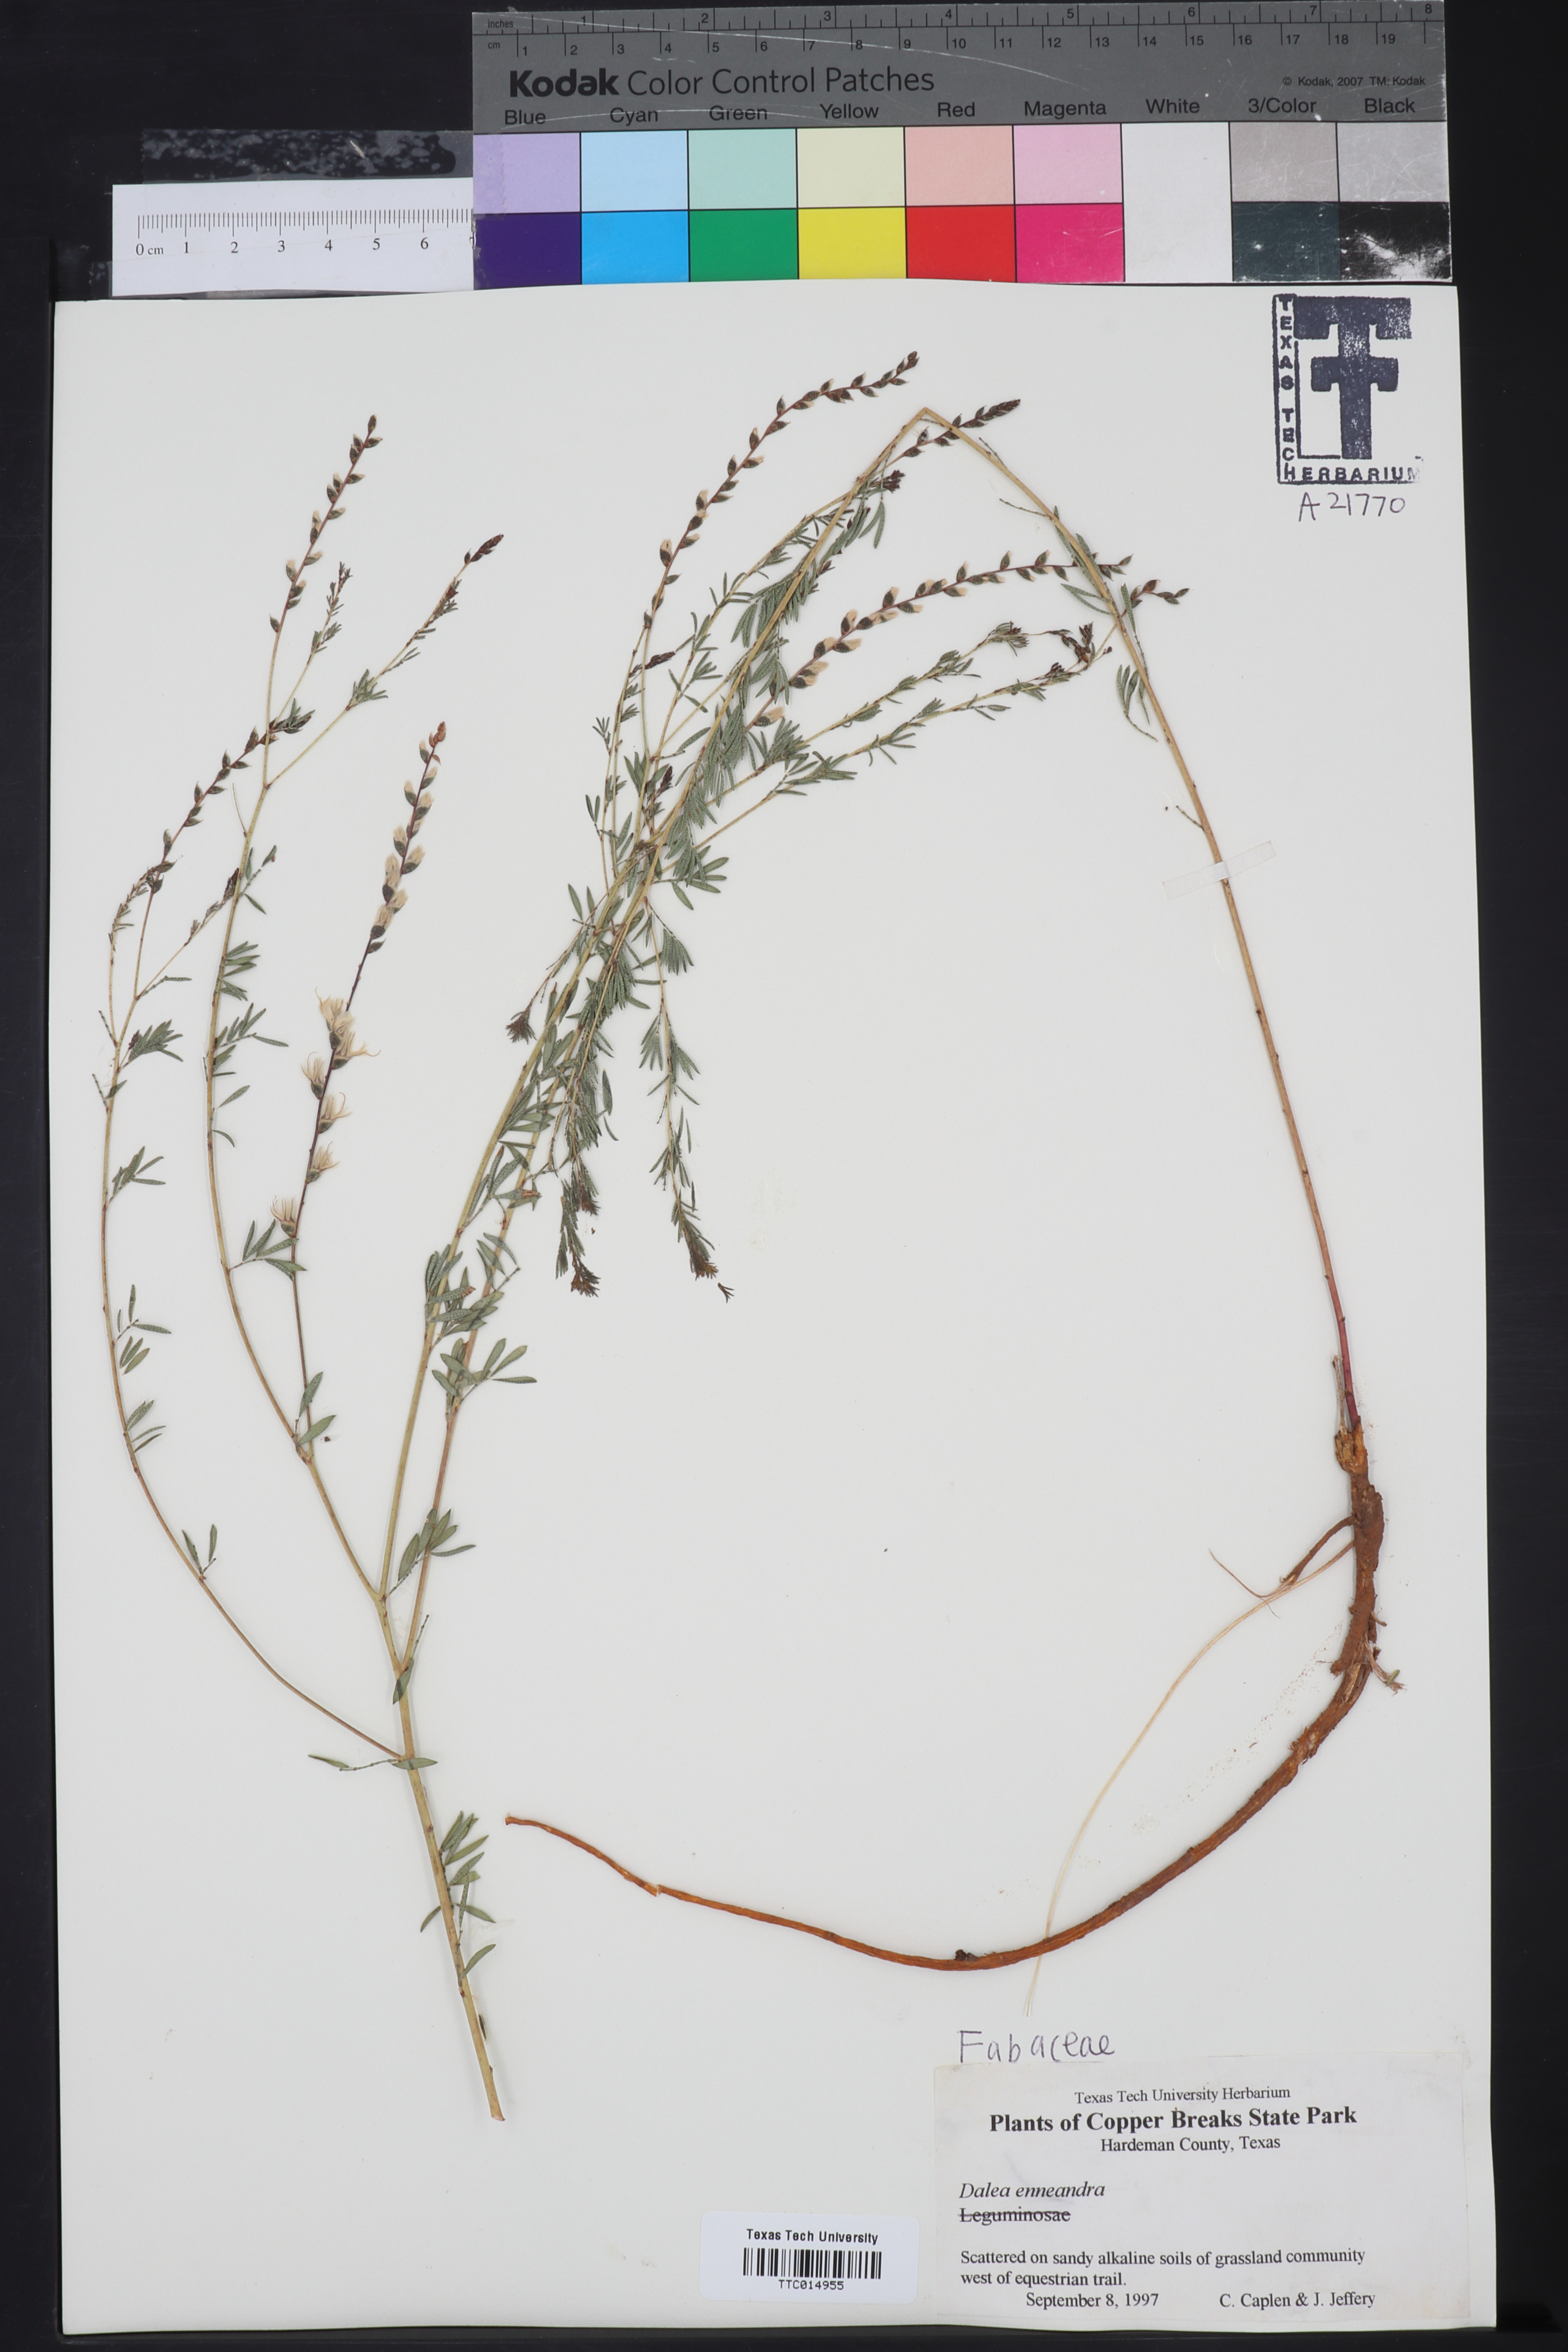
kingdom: Plantae
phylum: Tracheophyta
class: Magnoliopsida
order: Fabales
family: Fabaceae
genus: Dalea
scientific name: Dalea enneandra
